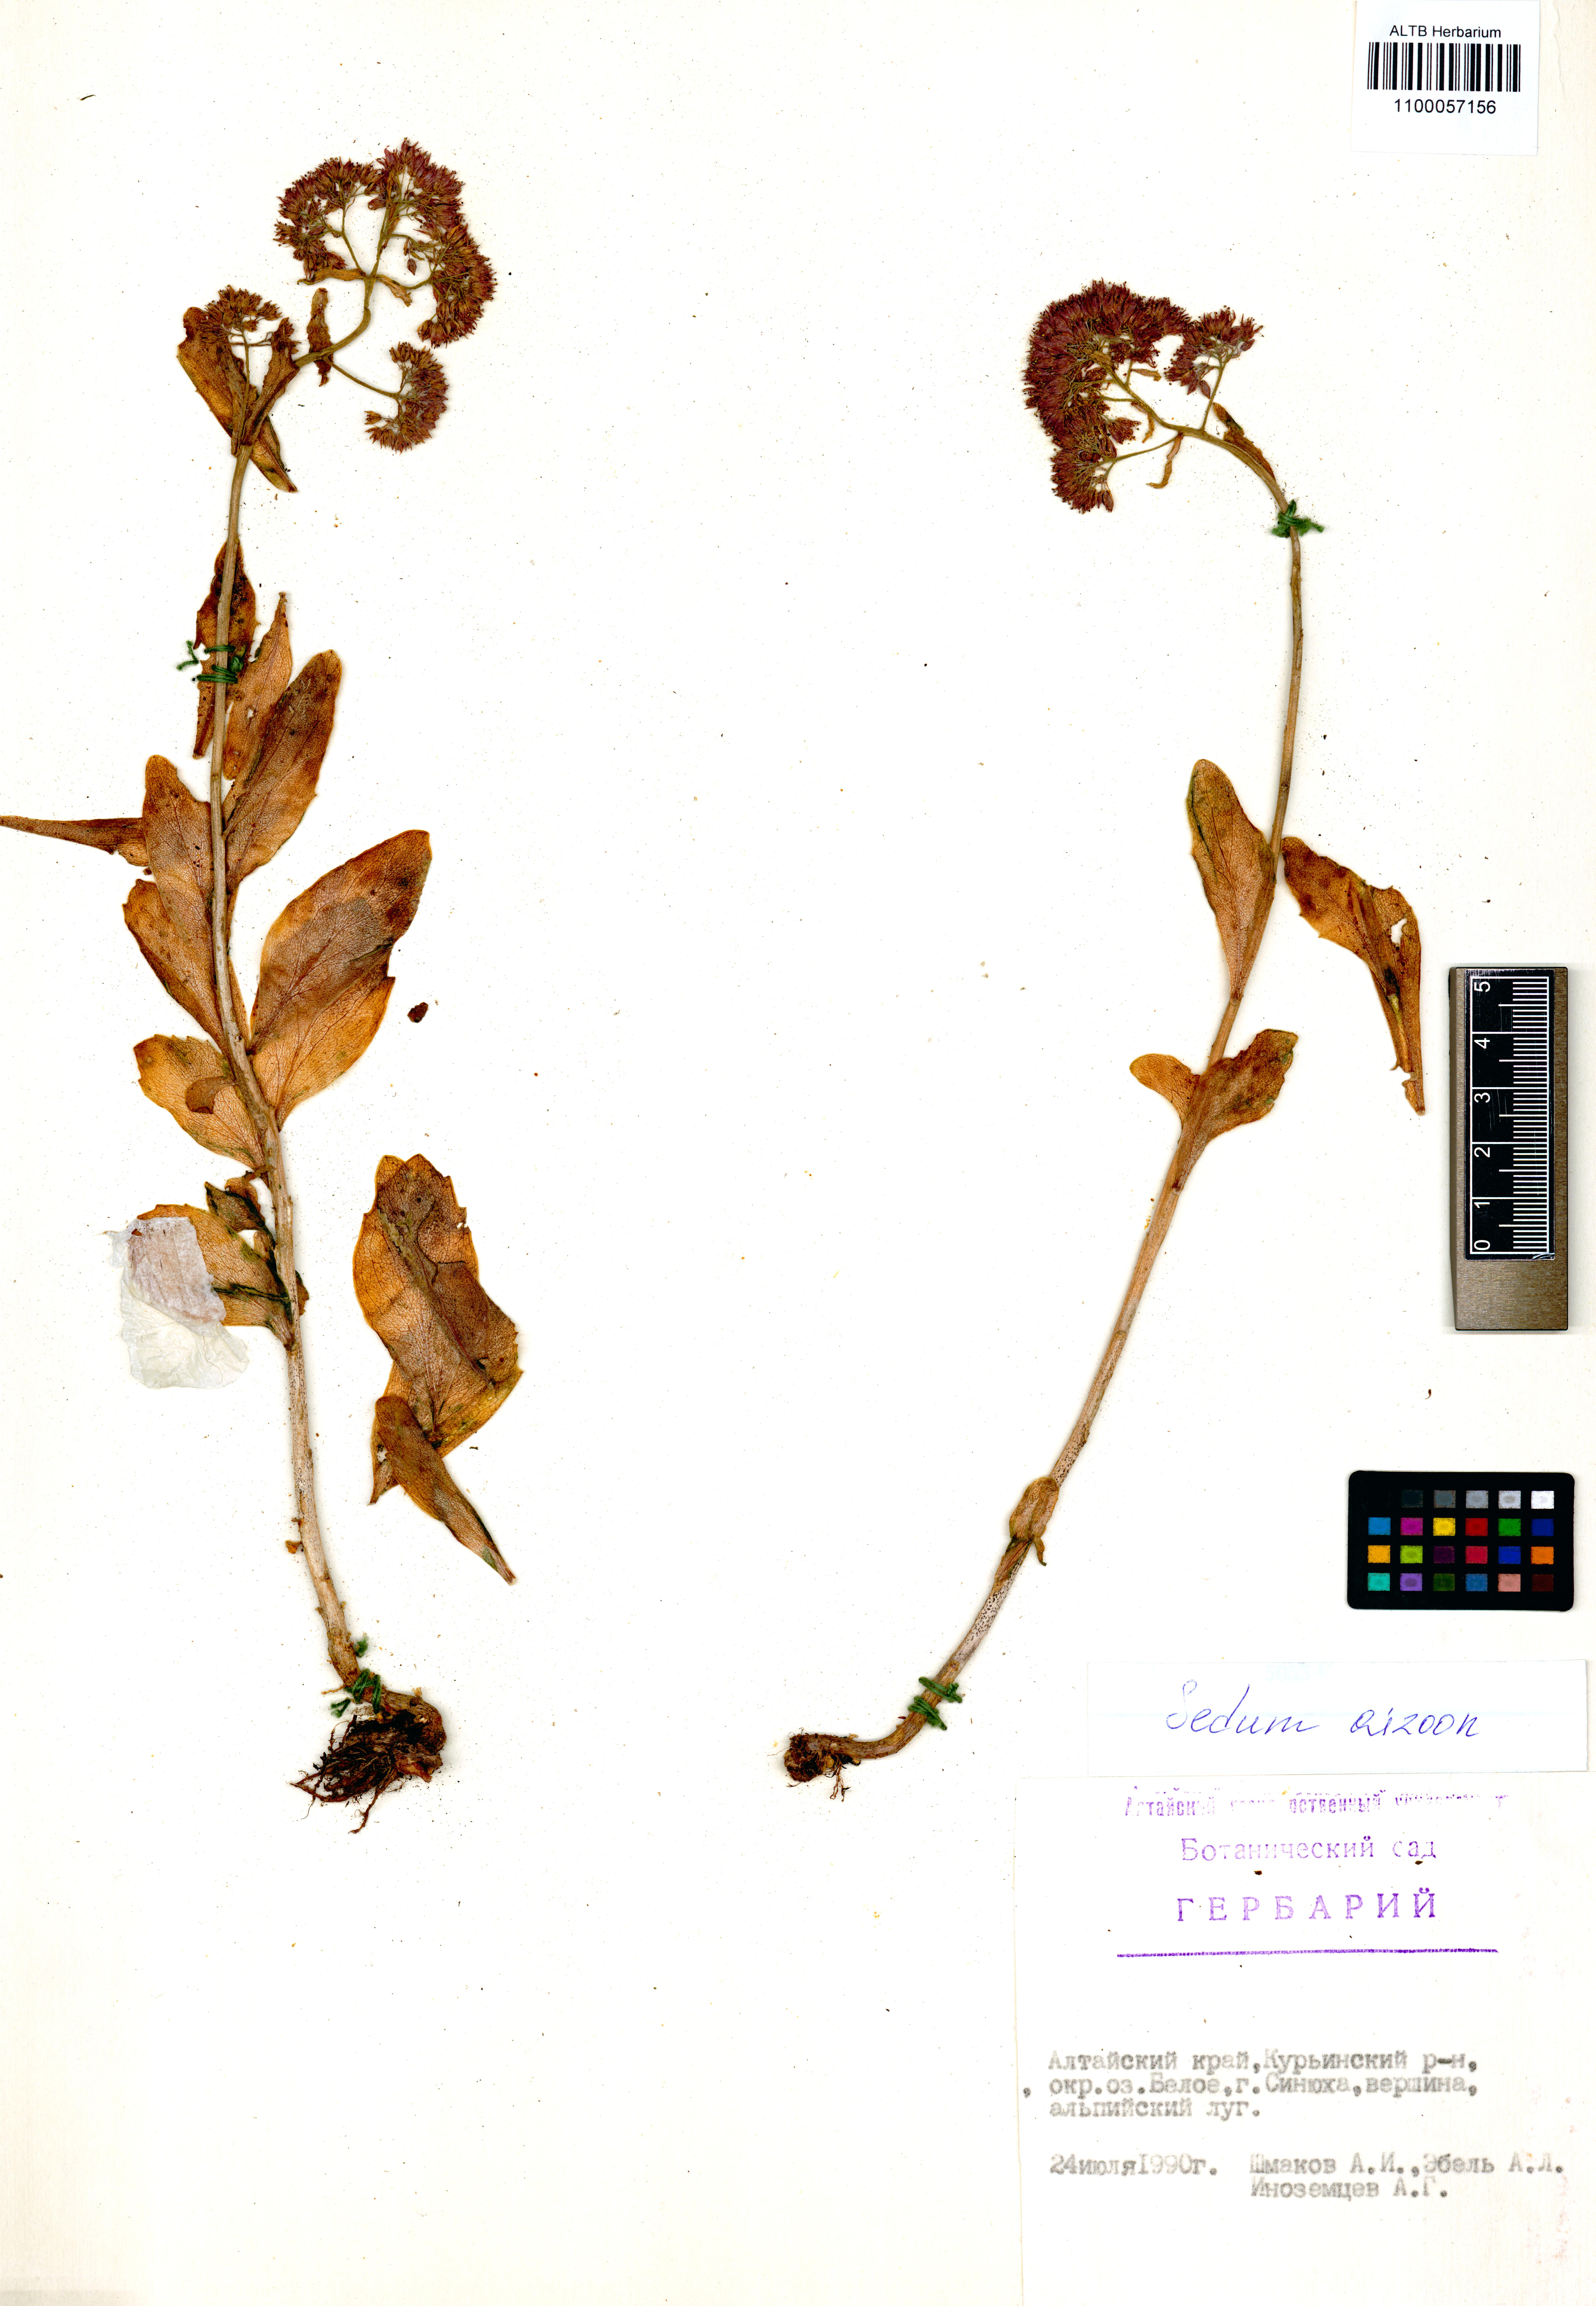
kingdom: Plantae
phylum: Tracheophyta
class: Magnoliopsida
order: Saxifragales
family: Crassulaceae
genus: Phedimus
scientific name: Phedimus aizoon
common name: Orpin aizoon
